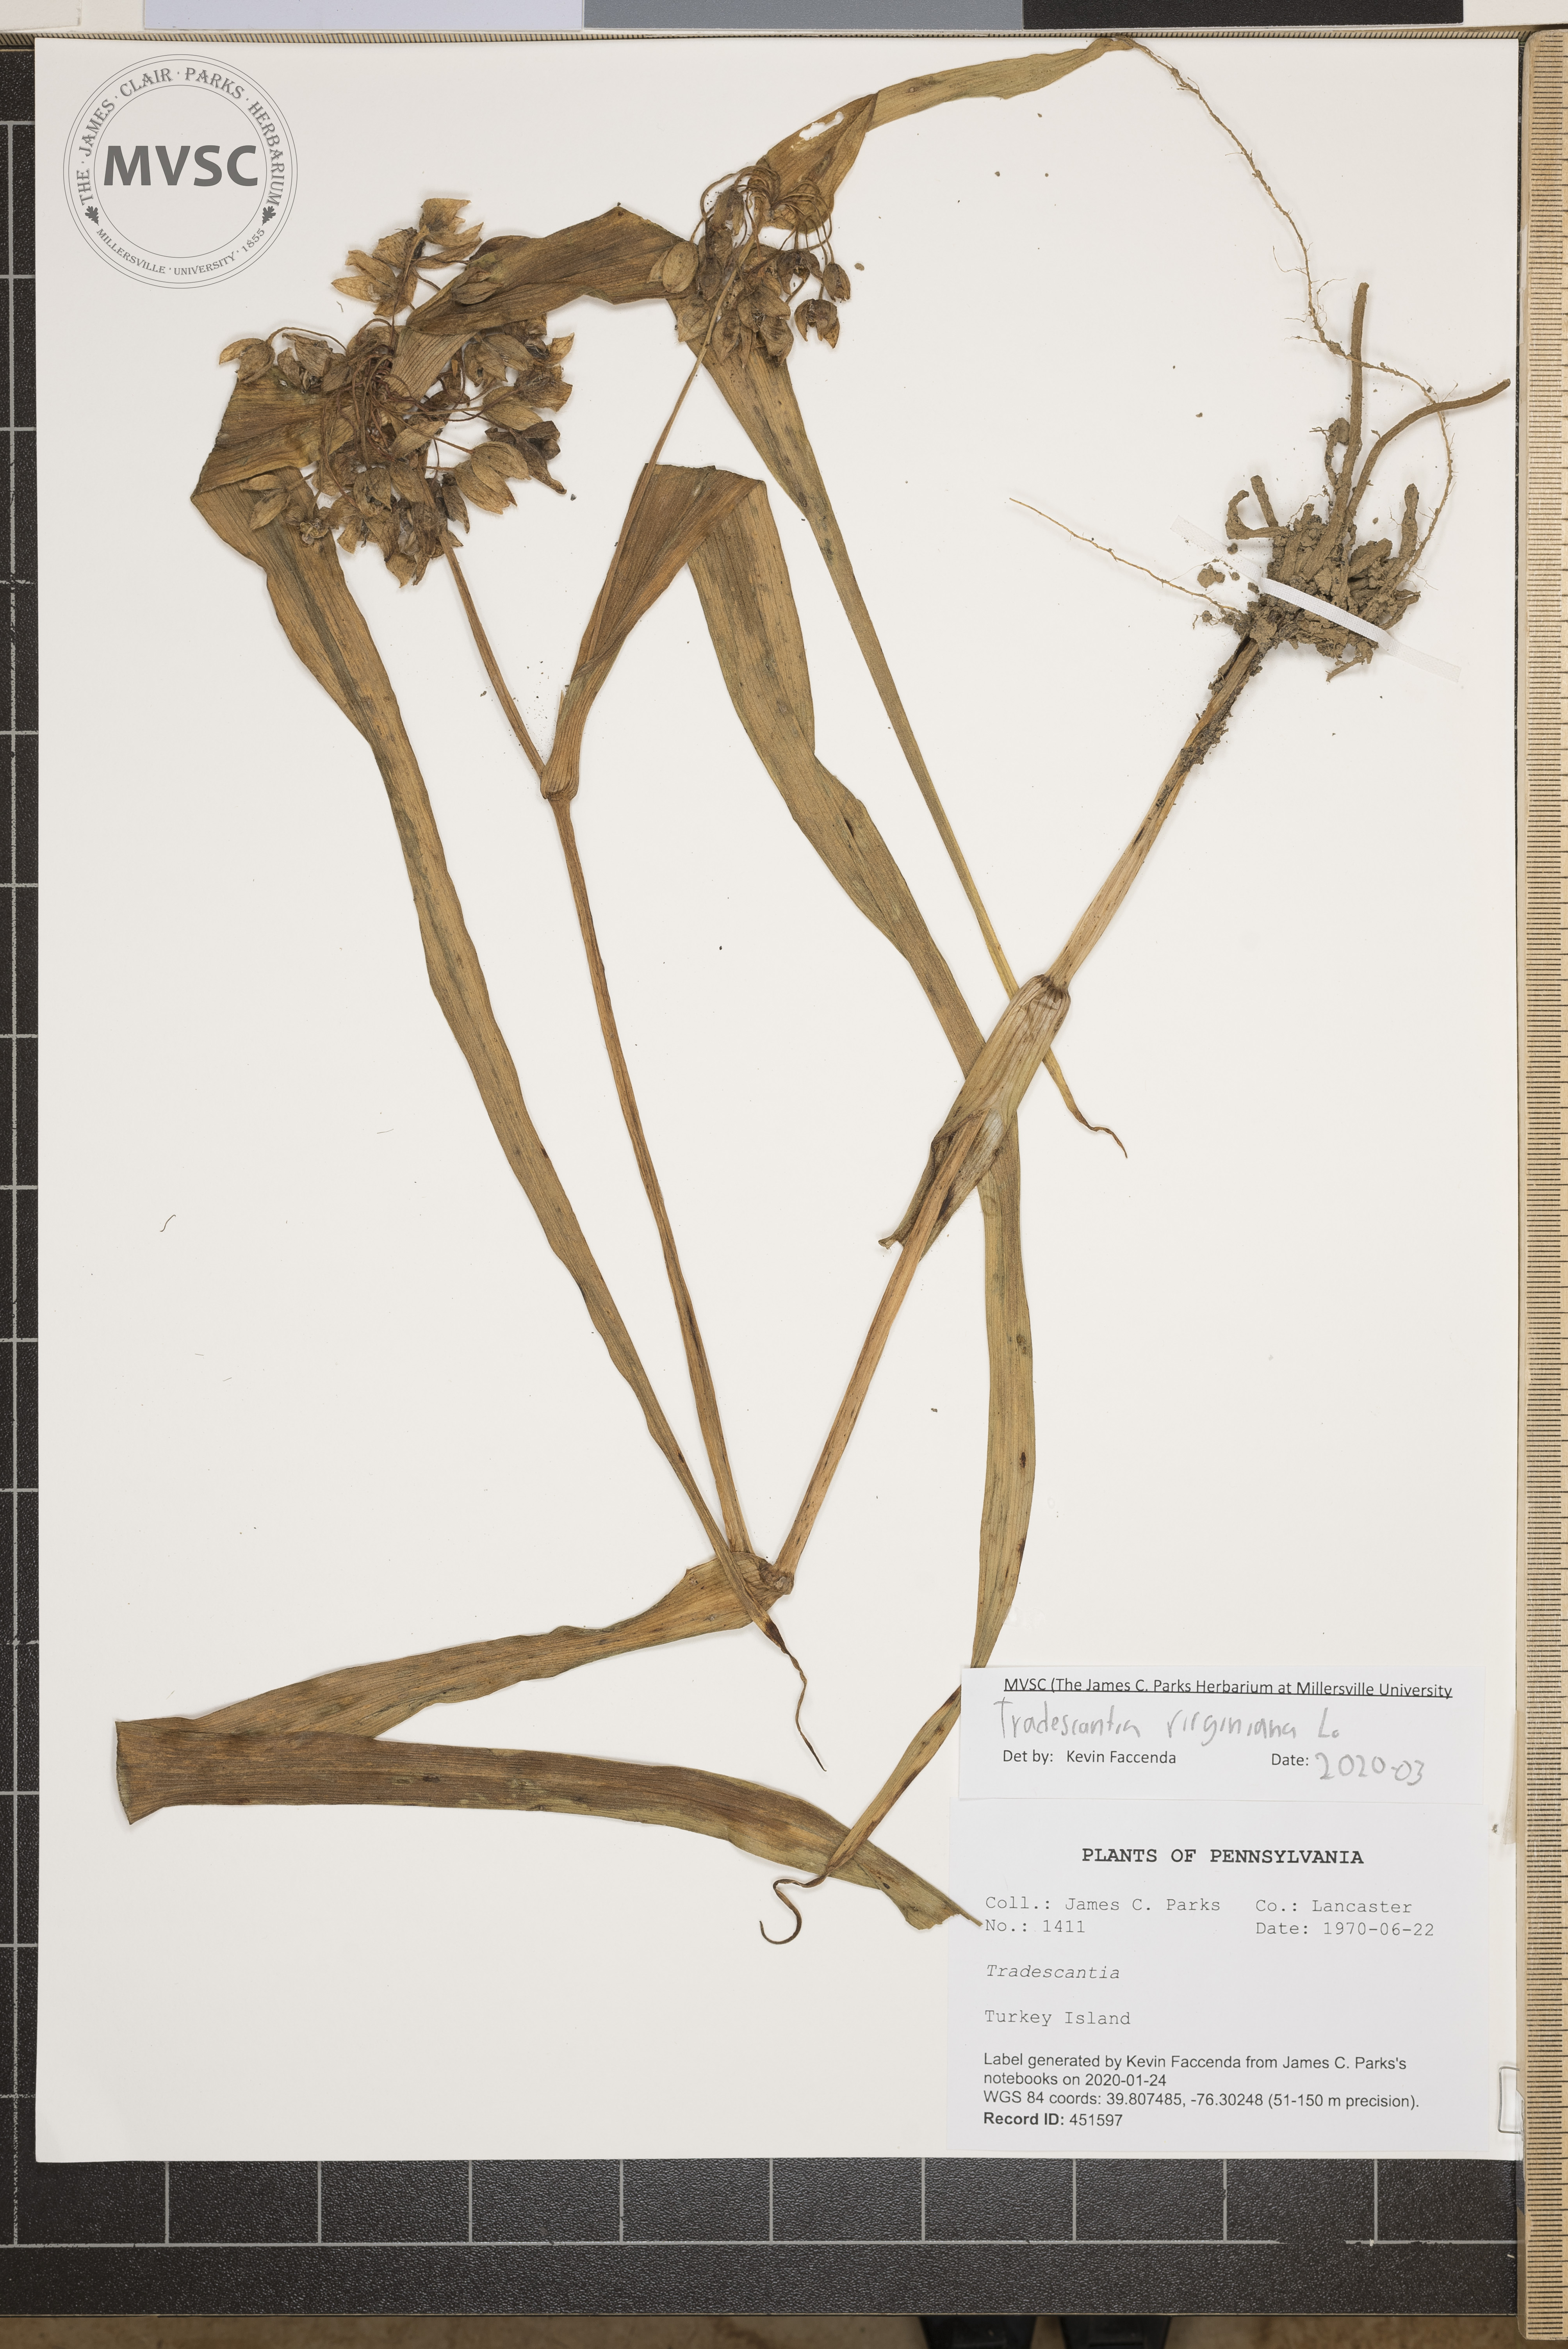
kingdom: Plantae
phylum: Tracheophyta
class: Liliopsida
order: Commelinales
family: Commelinaceae
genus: Tradescantia
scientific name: Tradescantia virginiana
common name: Spiderwort
